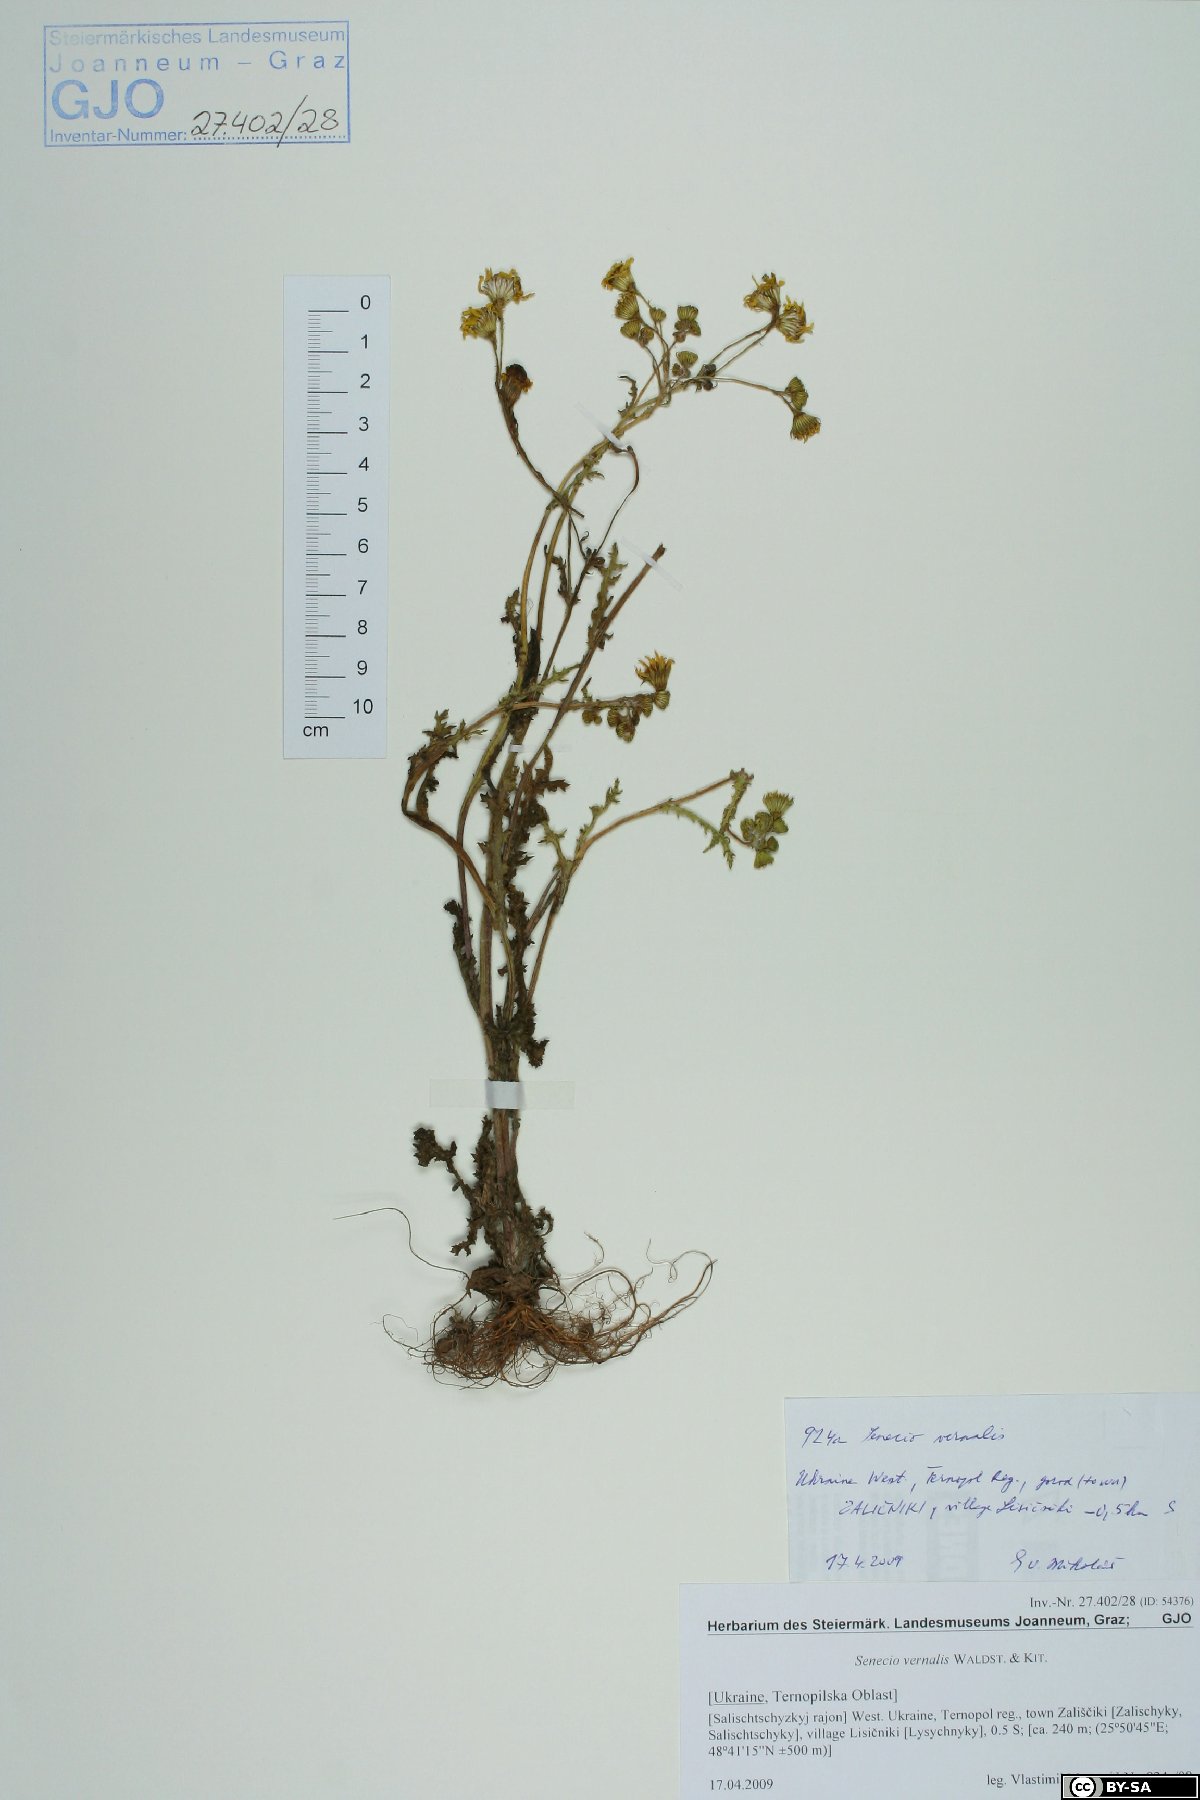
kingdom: Plantae
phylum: Tracheophyta
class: Magnoliopsida
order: Asterales
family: Asteraceae
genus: Senecio
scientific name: Senecio vernalis
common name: Eastern groundsel
